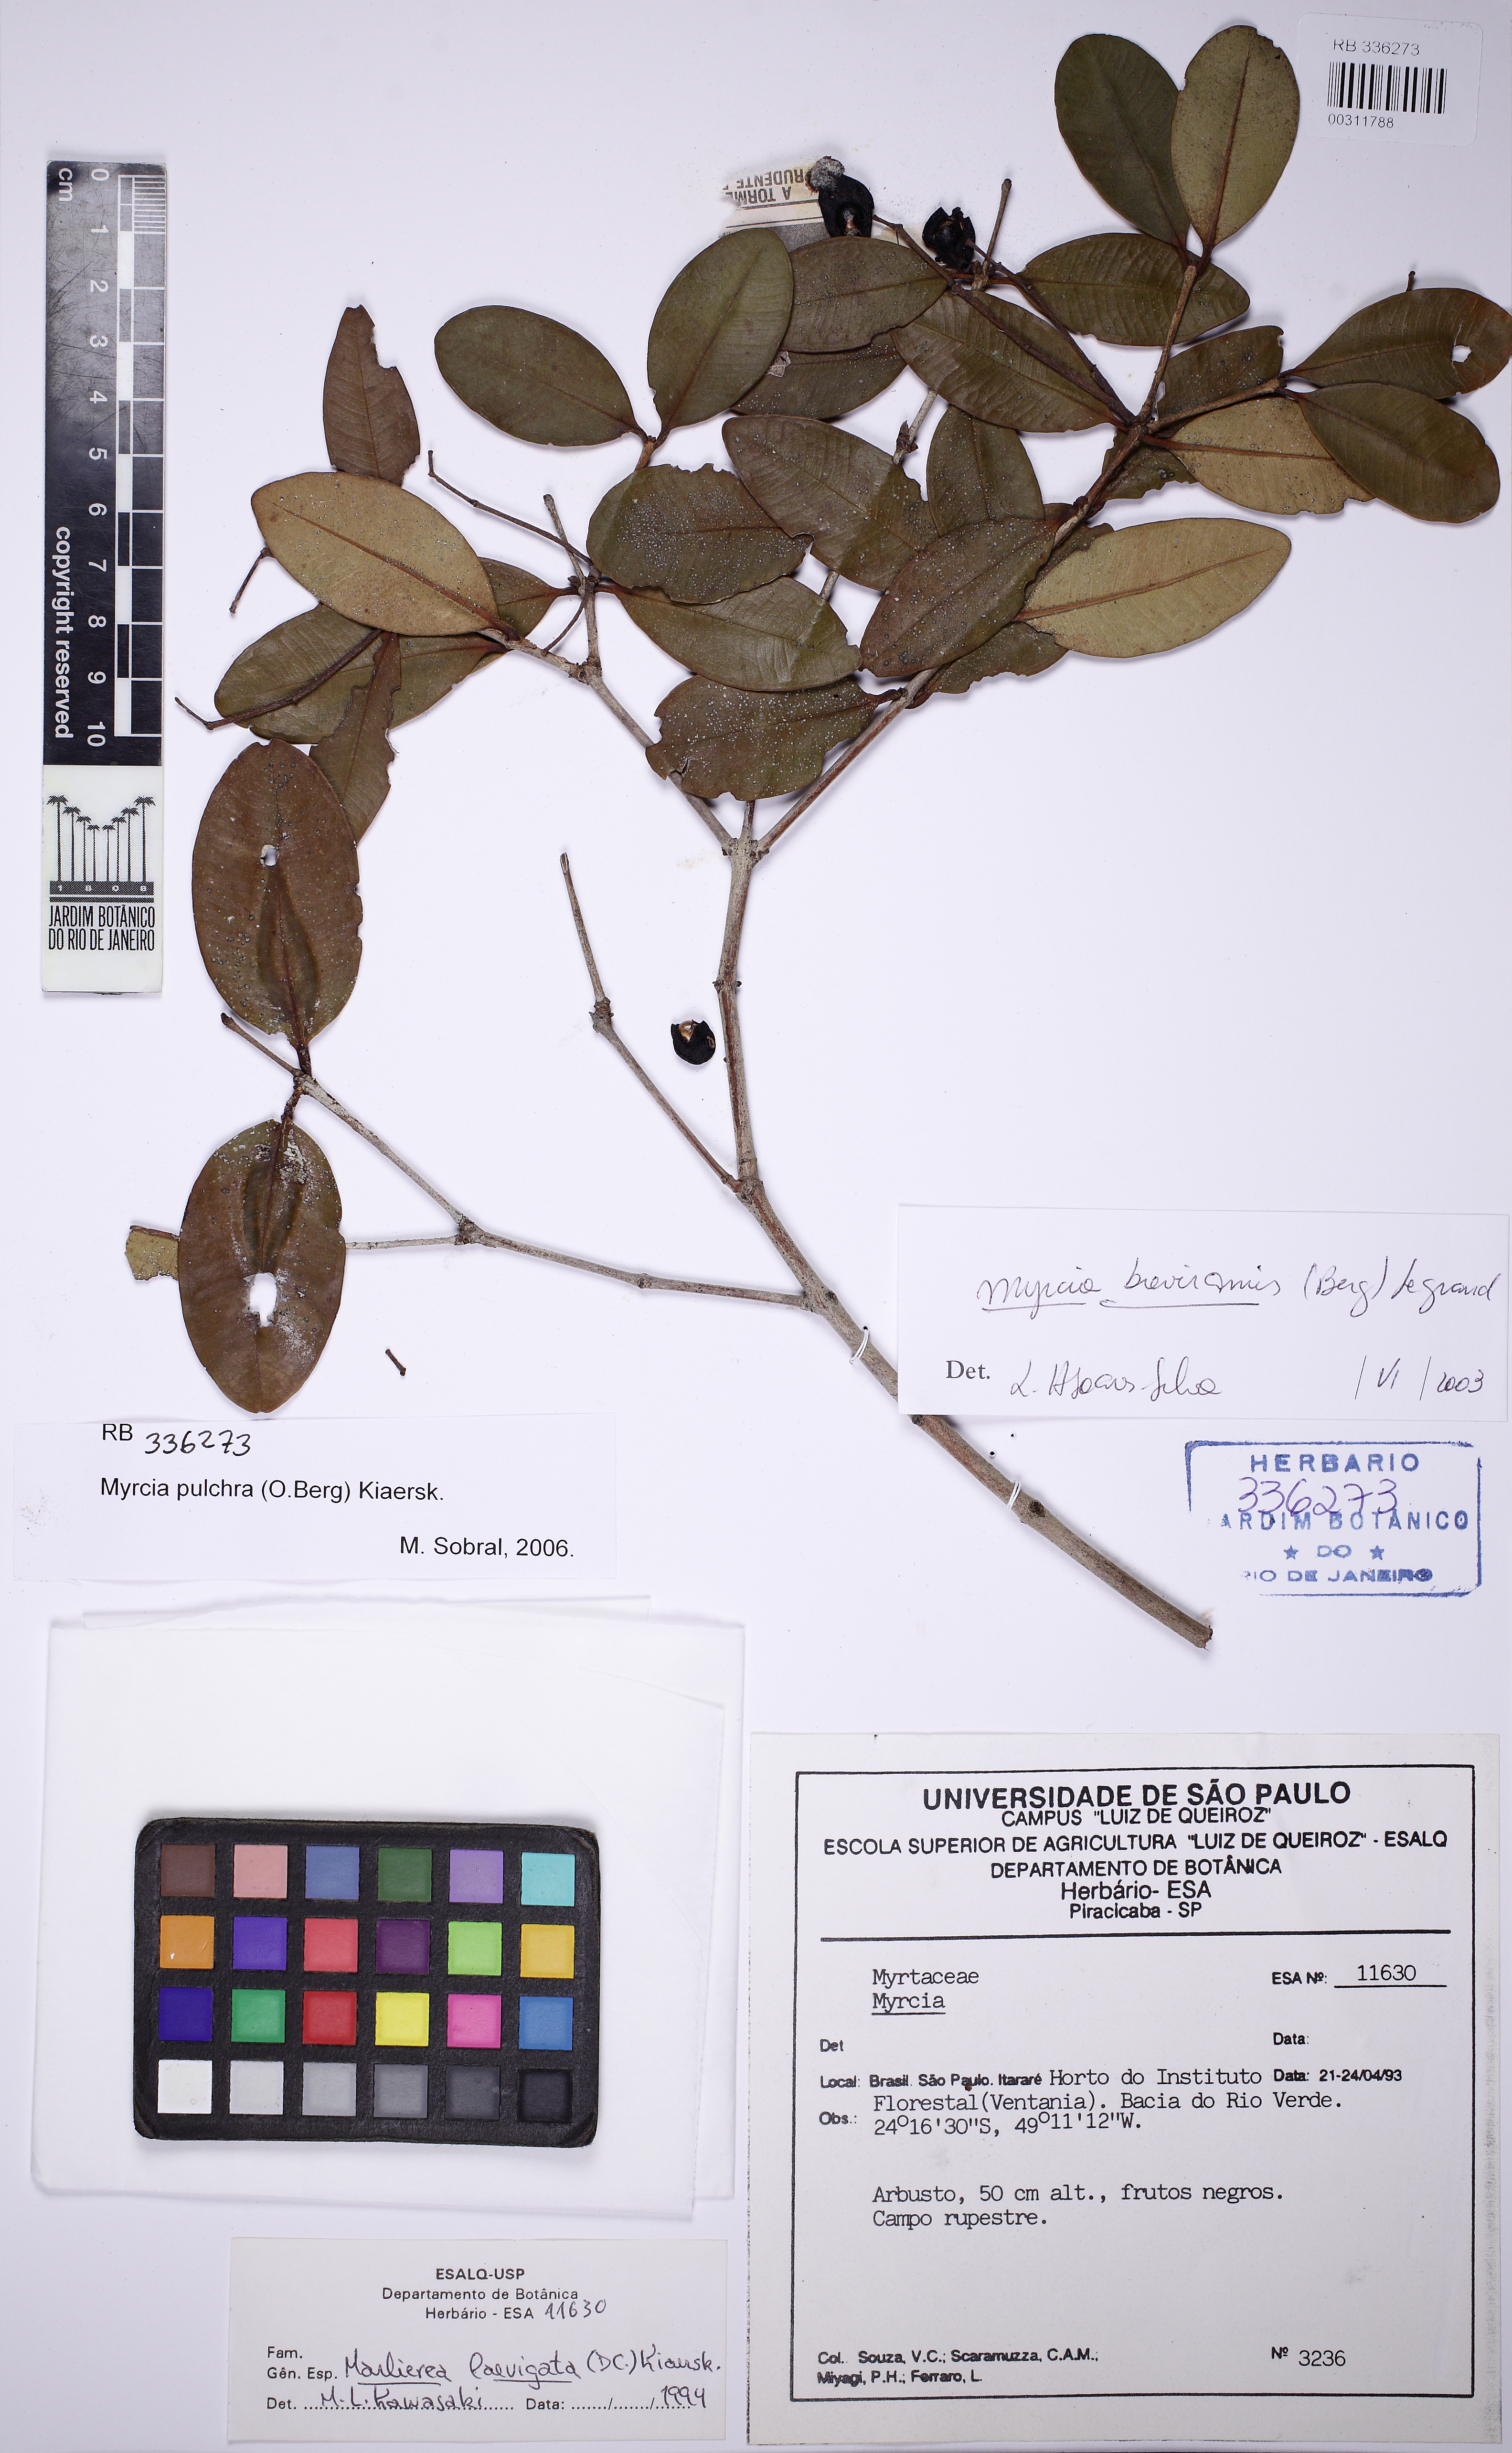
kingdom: Plantae
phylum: Tracheophyta
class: Magnoliopsida
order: Myrtales
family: Myrtaceae
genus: Myrcia
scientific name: Myrcia pulchra
